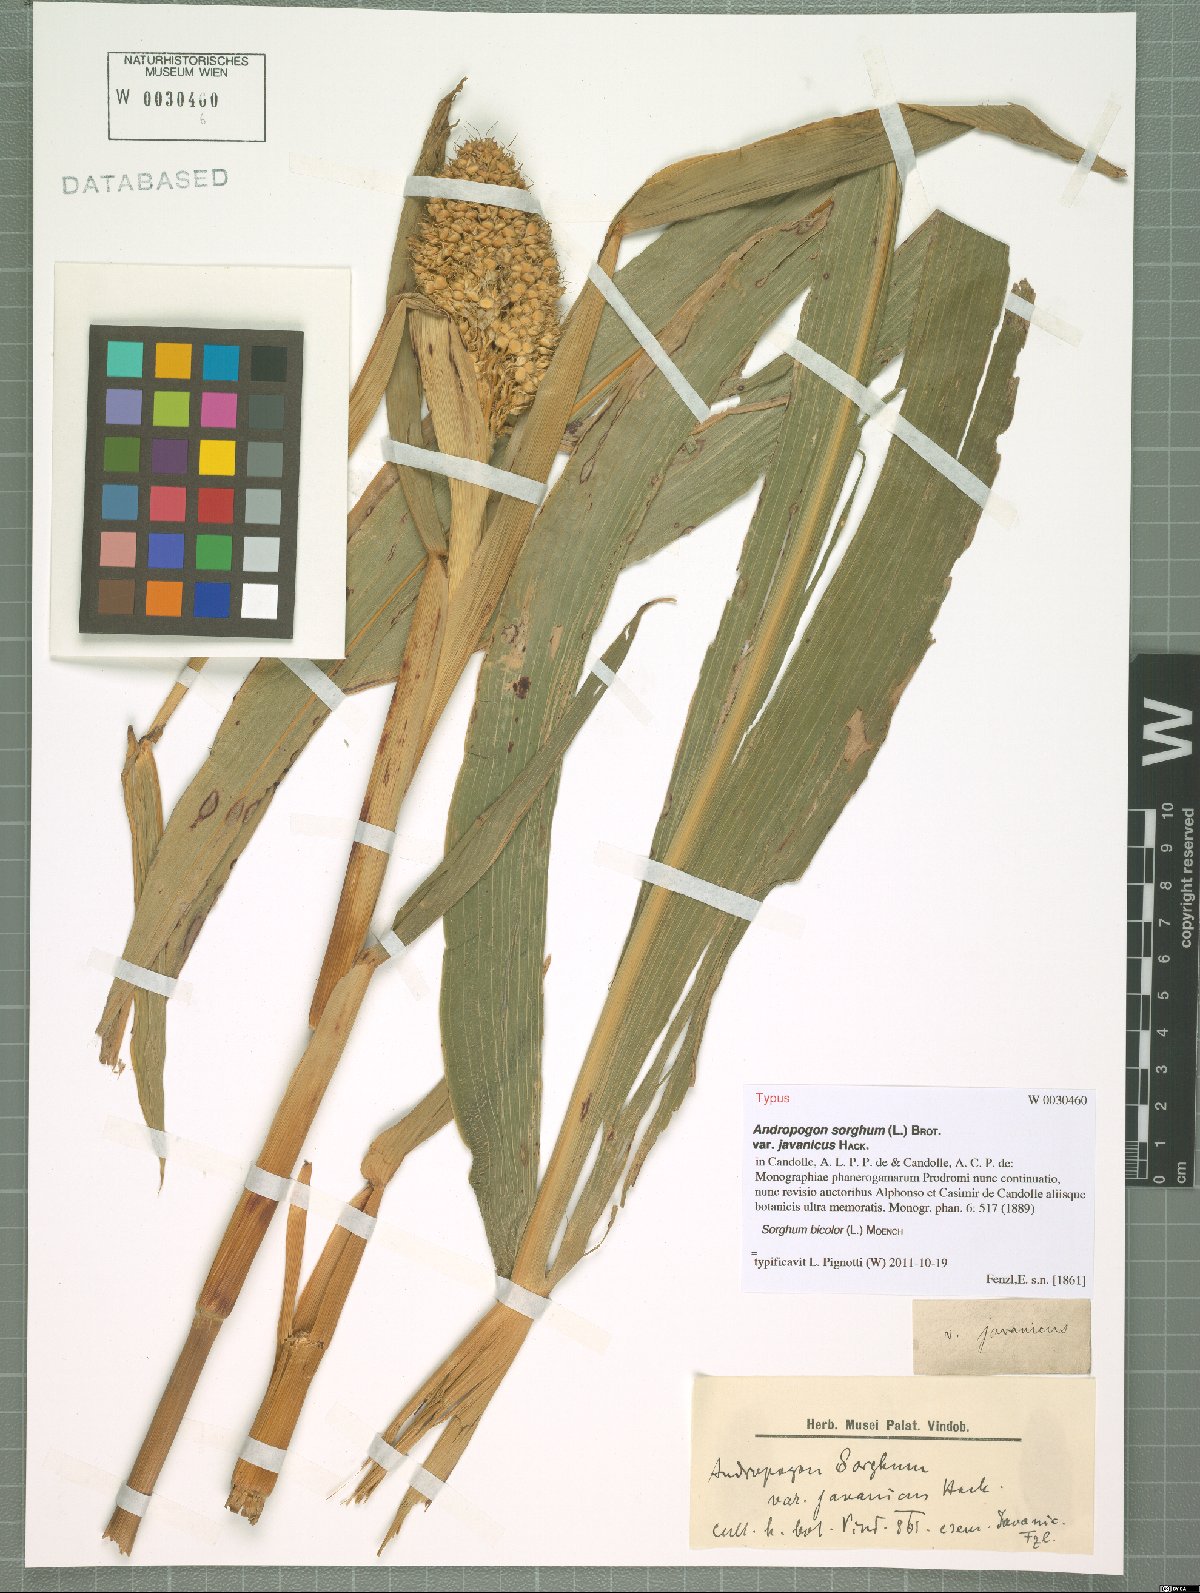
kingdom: Plantae
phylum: Tracheophyta
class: Liliopsida
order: Poales
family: Poaceae
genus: Sorghum
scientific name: Sorghum bicolor
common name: Sorghum
